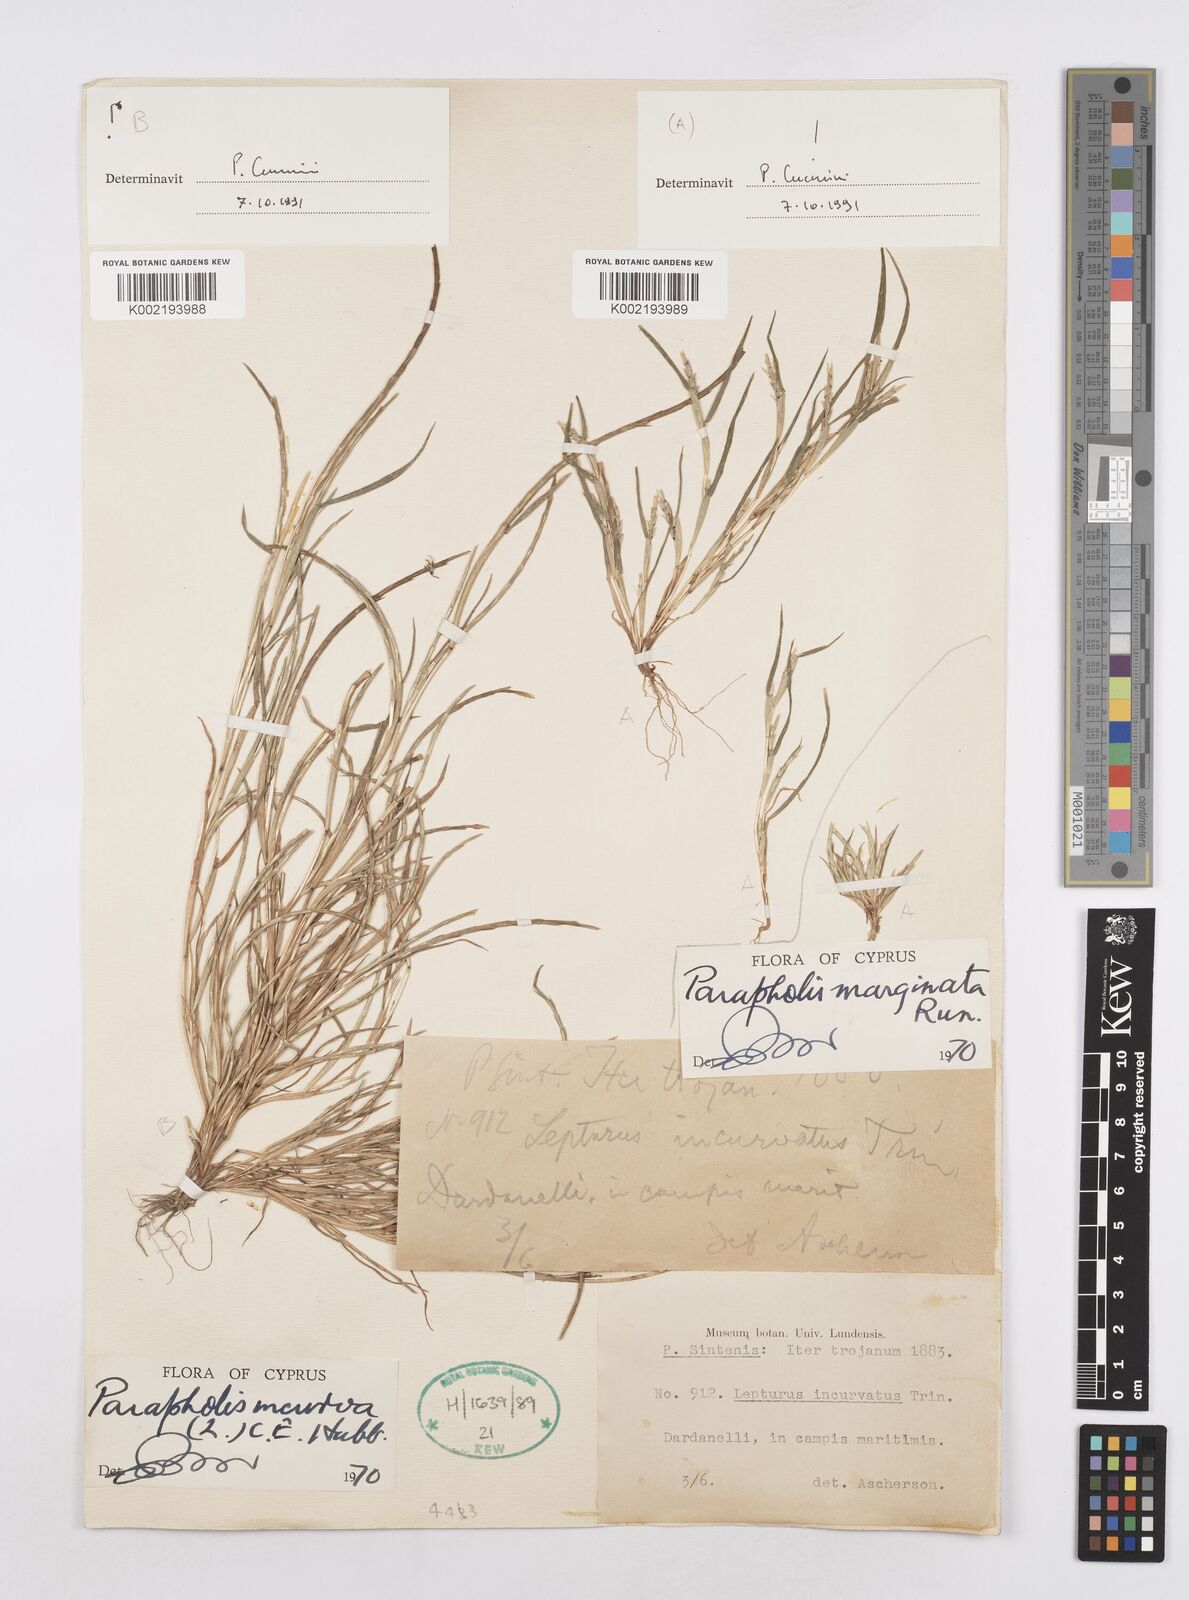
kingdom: Plantae
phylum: Tracheophyta
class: Liliopsida
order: Poales
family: Poaceae
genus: Parapholis
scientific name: Parapholis marginata
